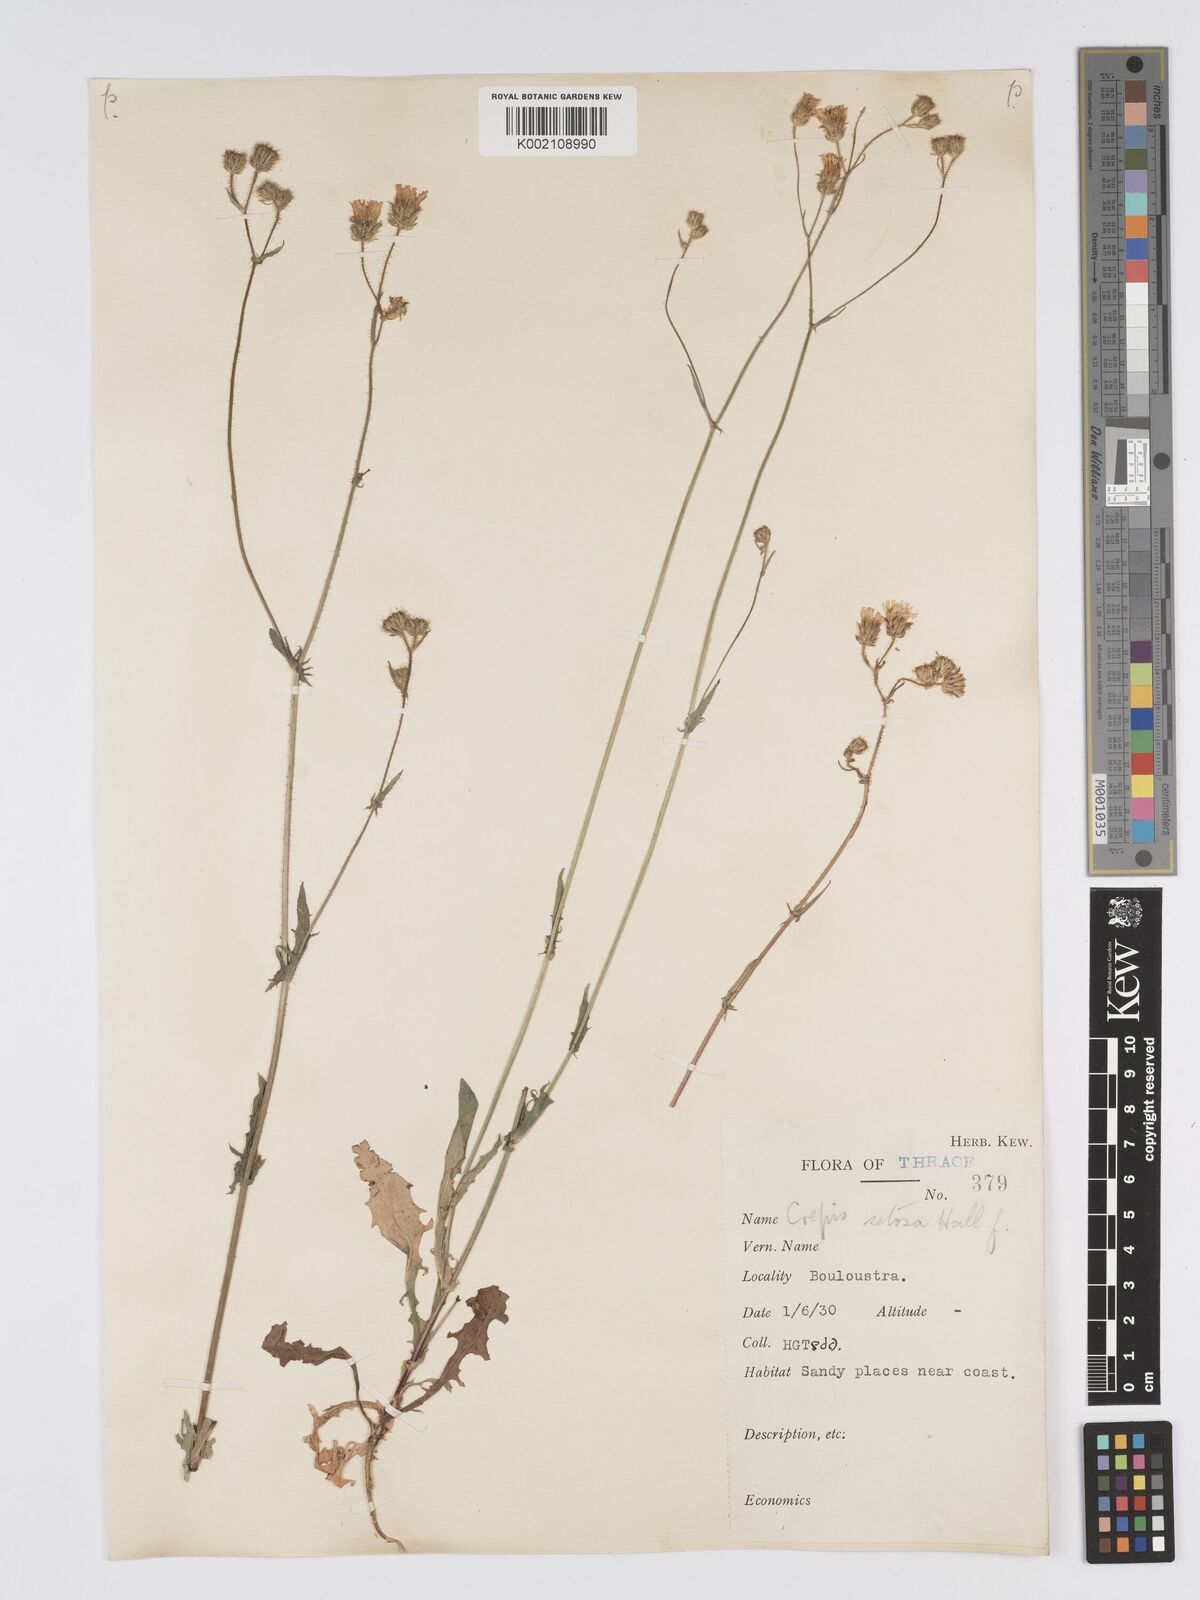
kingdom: Plantae
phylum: Tracheophyta
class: Magnoliopsida
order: Asterales
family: Asteraceae
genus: Crepis
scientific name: Crepis setosa
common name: Bristly hawk's-beard
